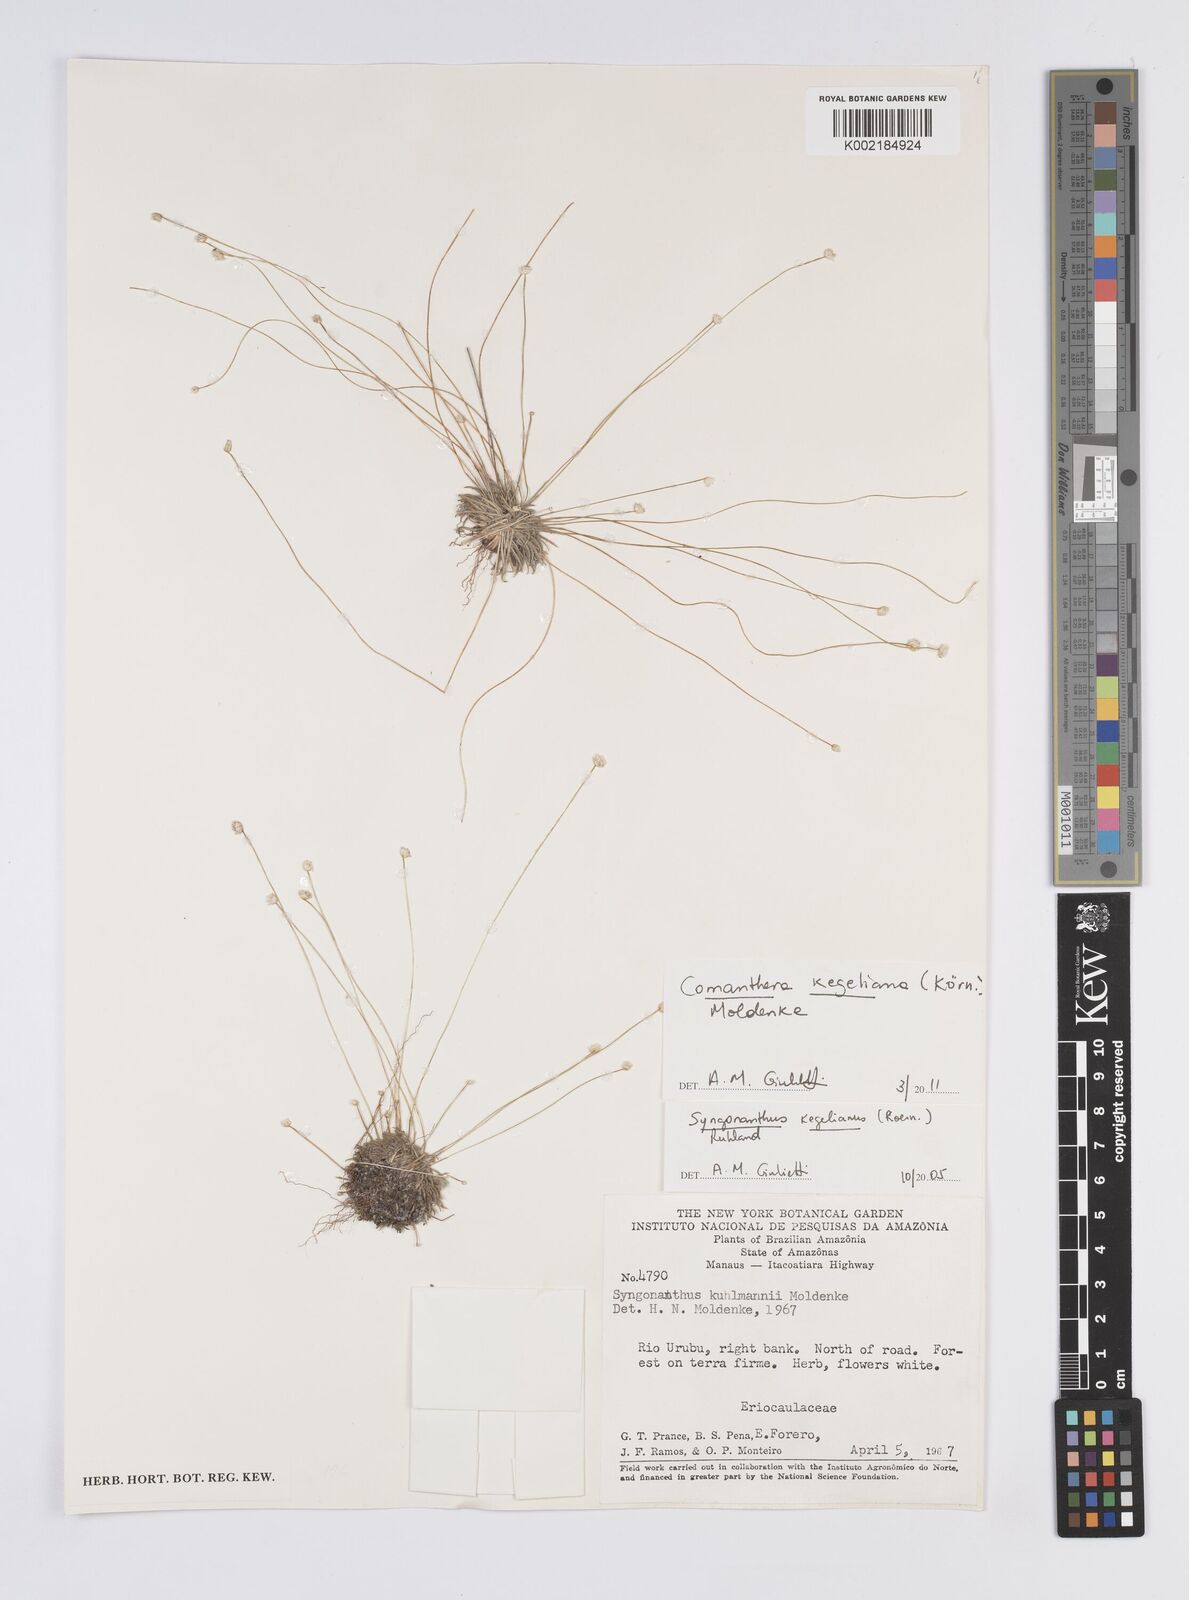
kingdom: Plantae
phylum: Tracheophyta
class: Liliopsida
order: Poales
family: Eriocaulaceae
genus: Comanthera
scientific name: Comanthera kegeliana
